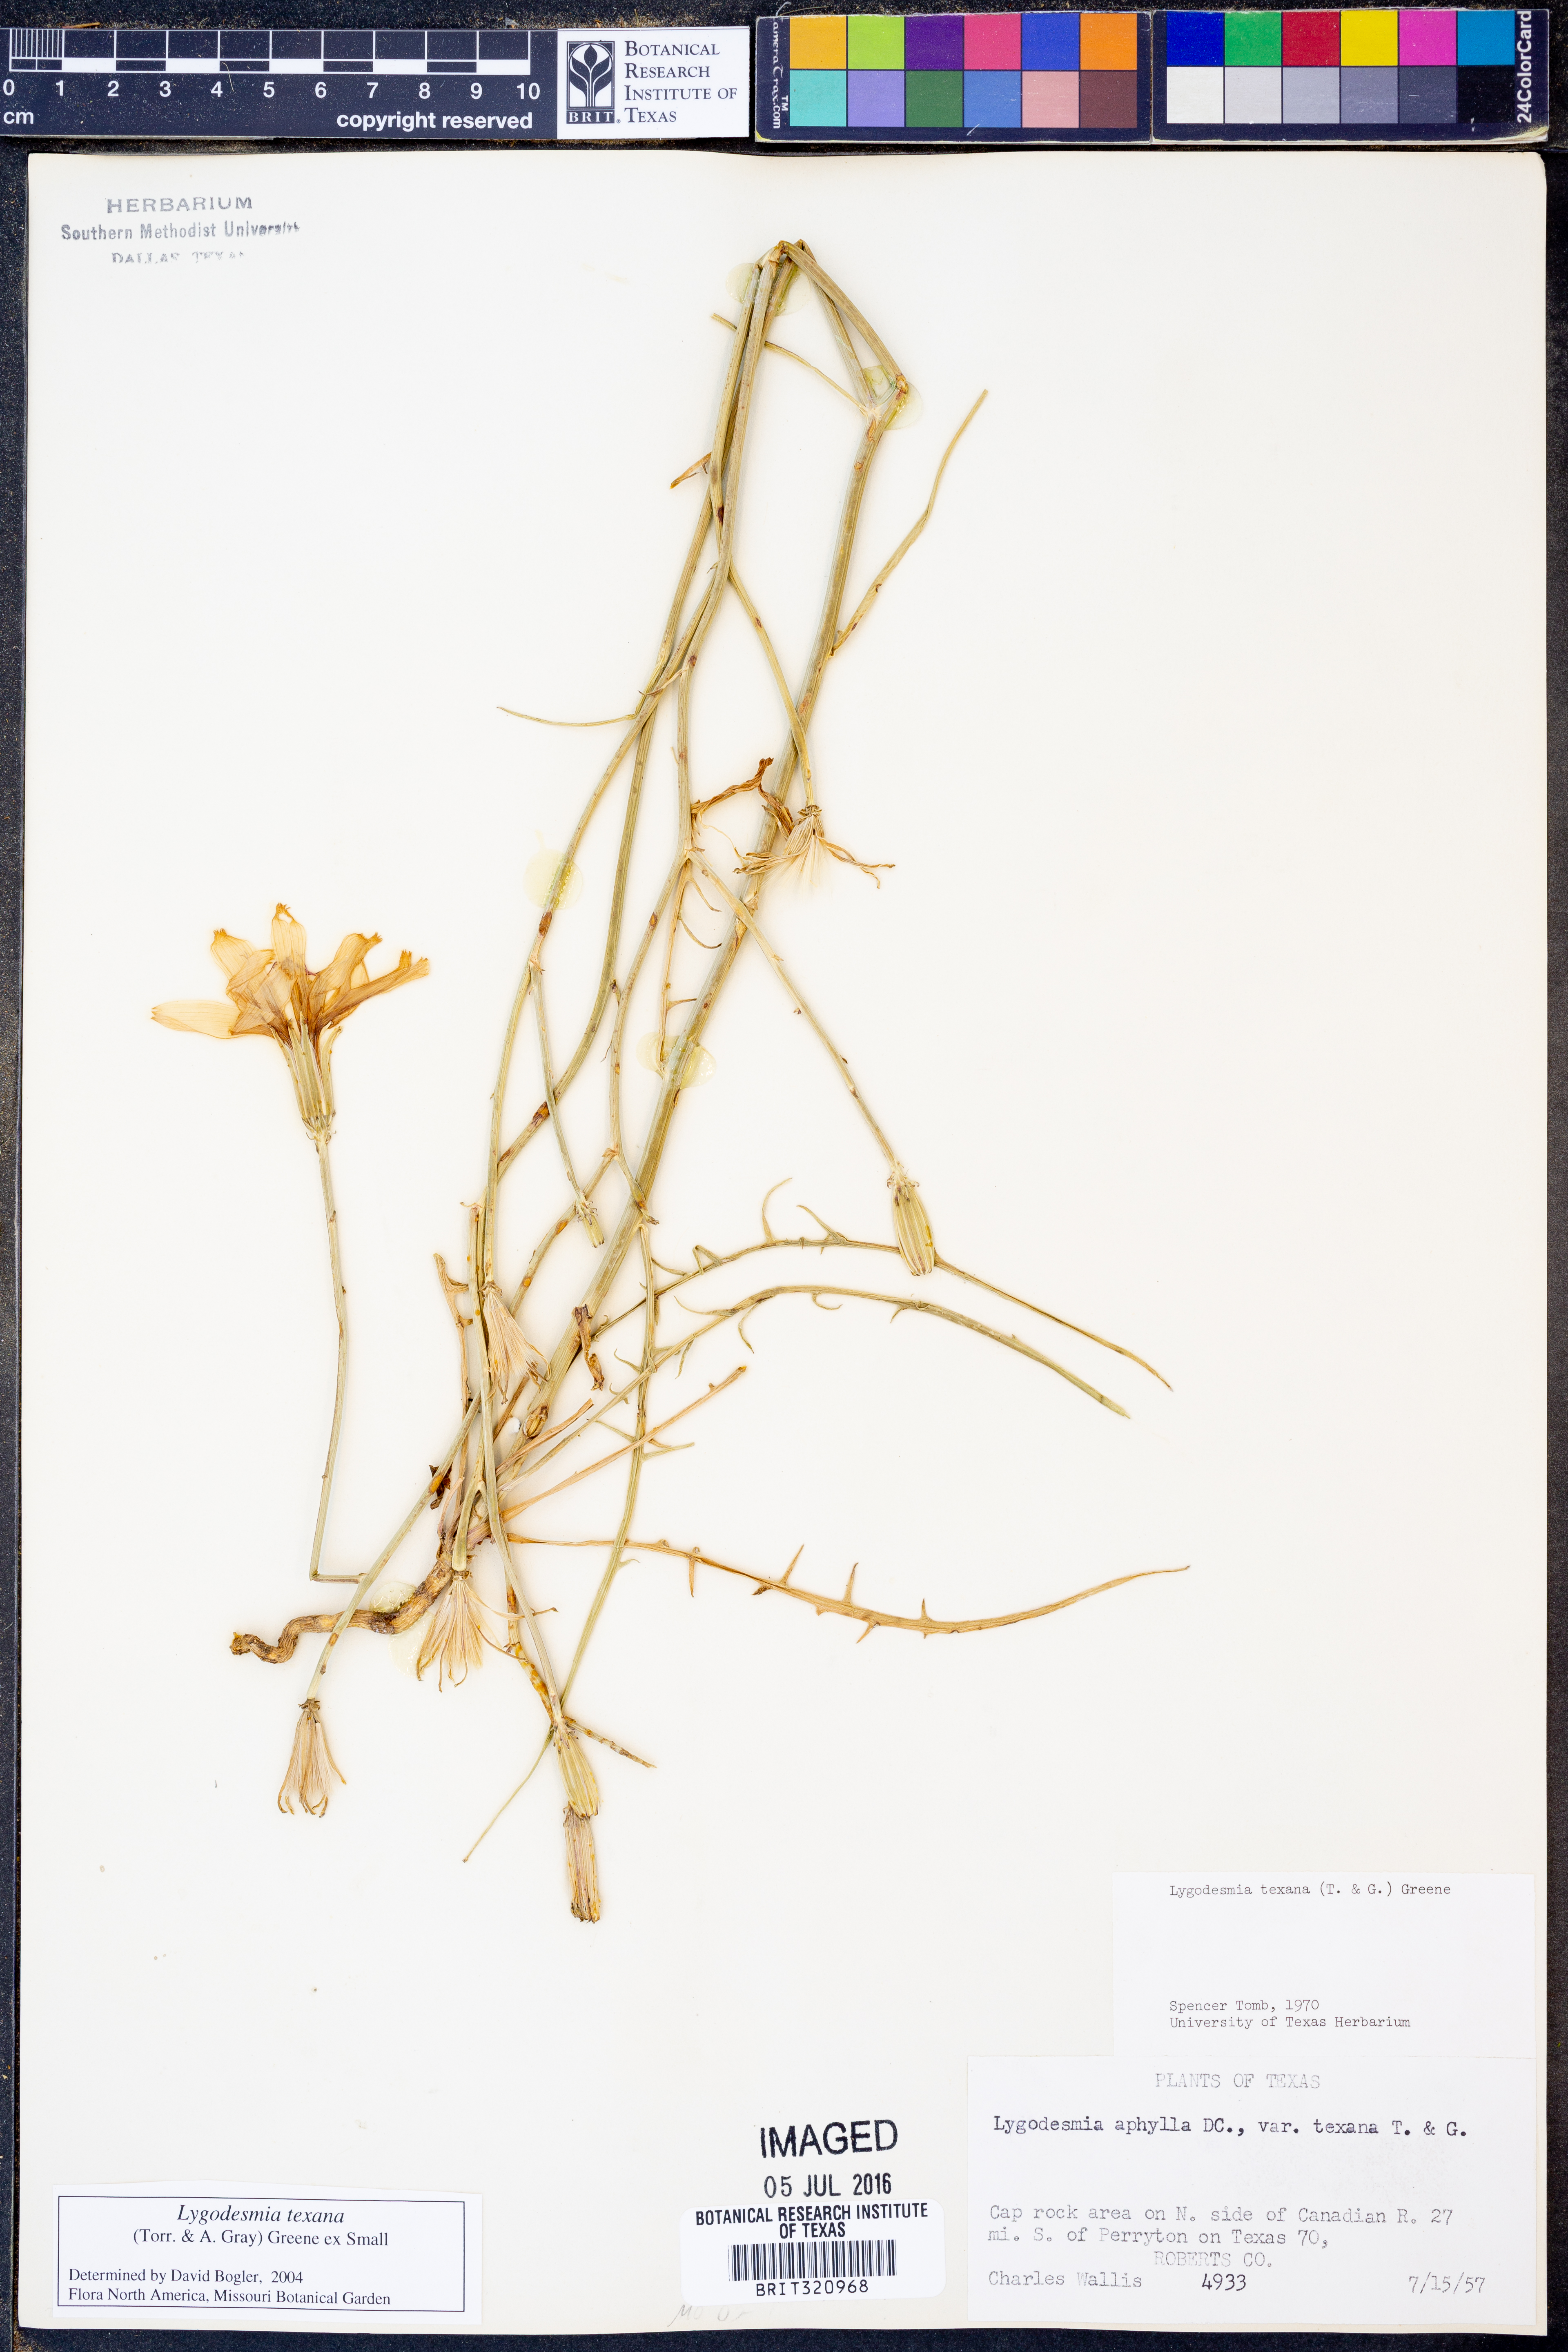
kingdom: Plantae
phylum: Tracheophyta
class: Magnoliopsida
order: Asterales
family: Asteraceae
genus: Lygodesmia
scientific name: Lygodesmia texana
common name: Texas skeleton-plant
